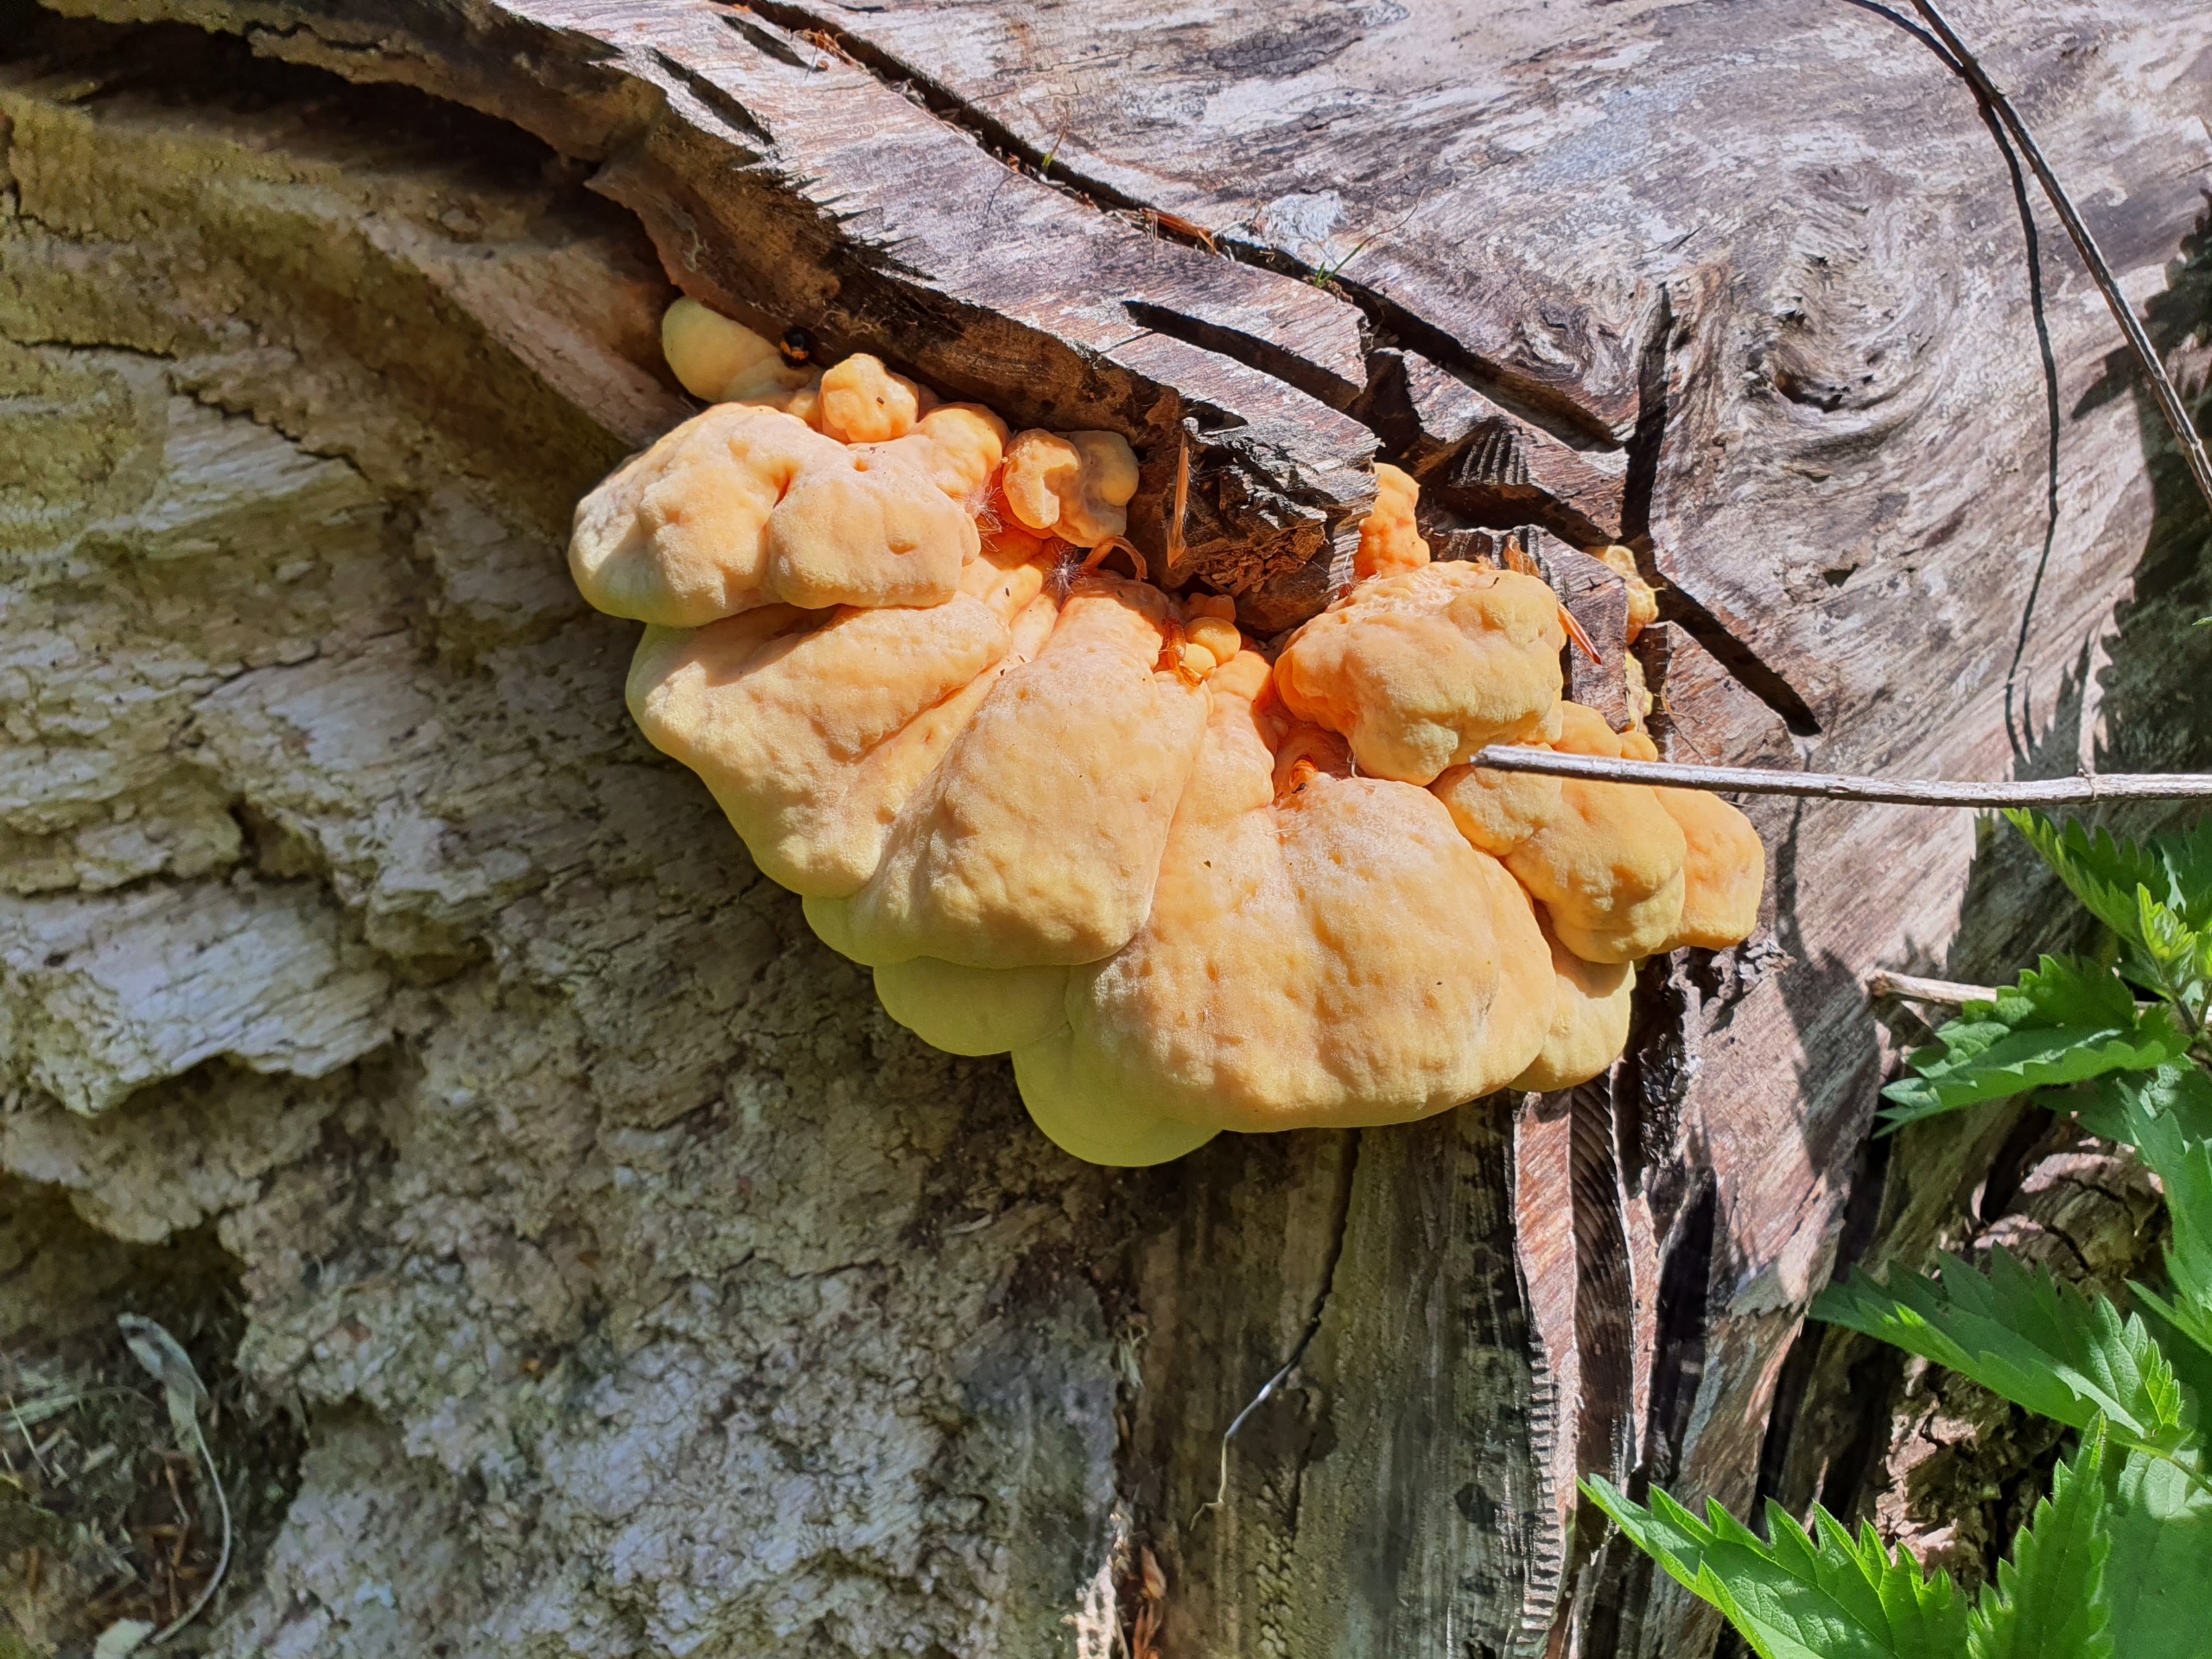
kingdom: Fungi
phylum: Basidiomycota
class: Agaricomycetes
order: Polyporales
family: Laetiporaceae
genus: Laetiporus
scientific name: Laetiporus sulphureus
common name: Svovlporesvamp
